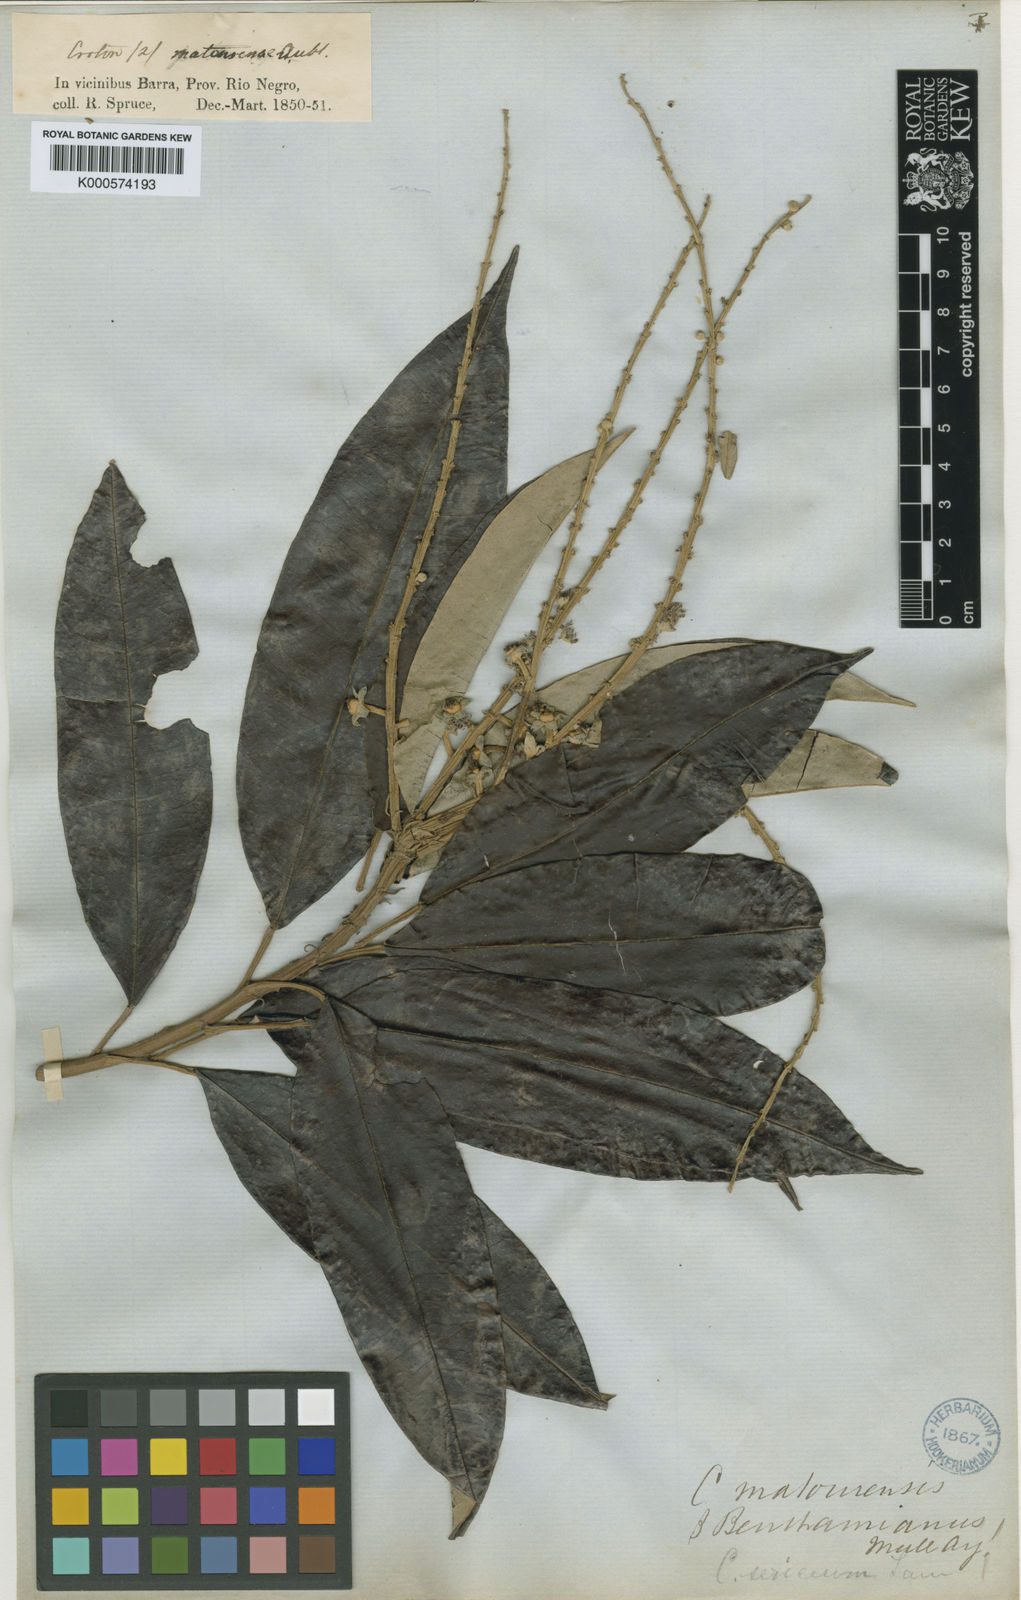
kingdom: Plantae
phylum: Tracheophyta
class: Magnoliopsida
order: Malpighiales
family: Euphorbiaceae
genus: Croton
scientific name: Croton matourensis
